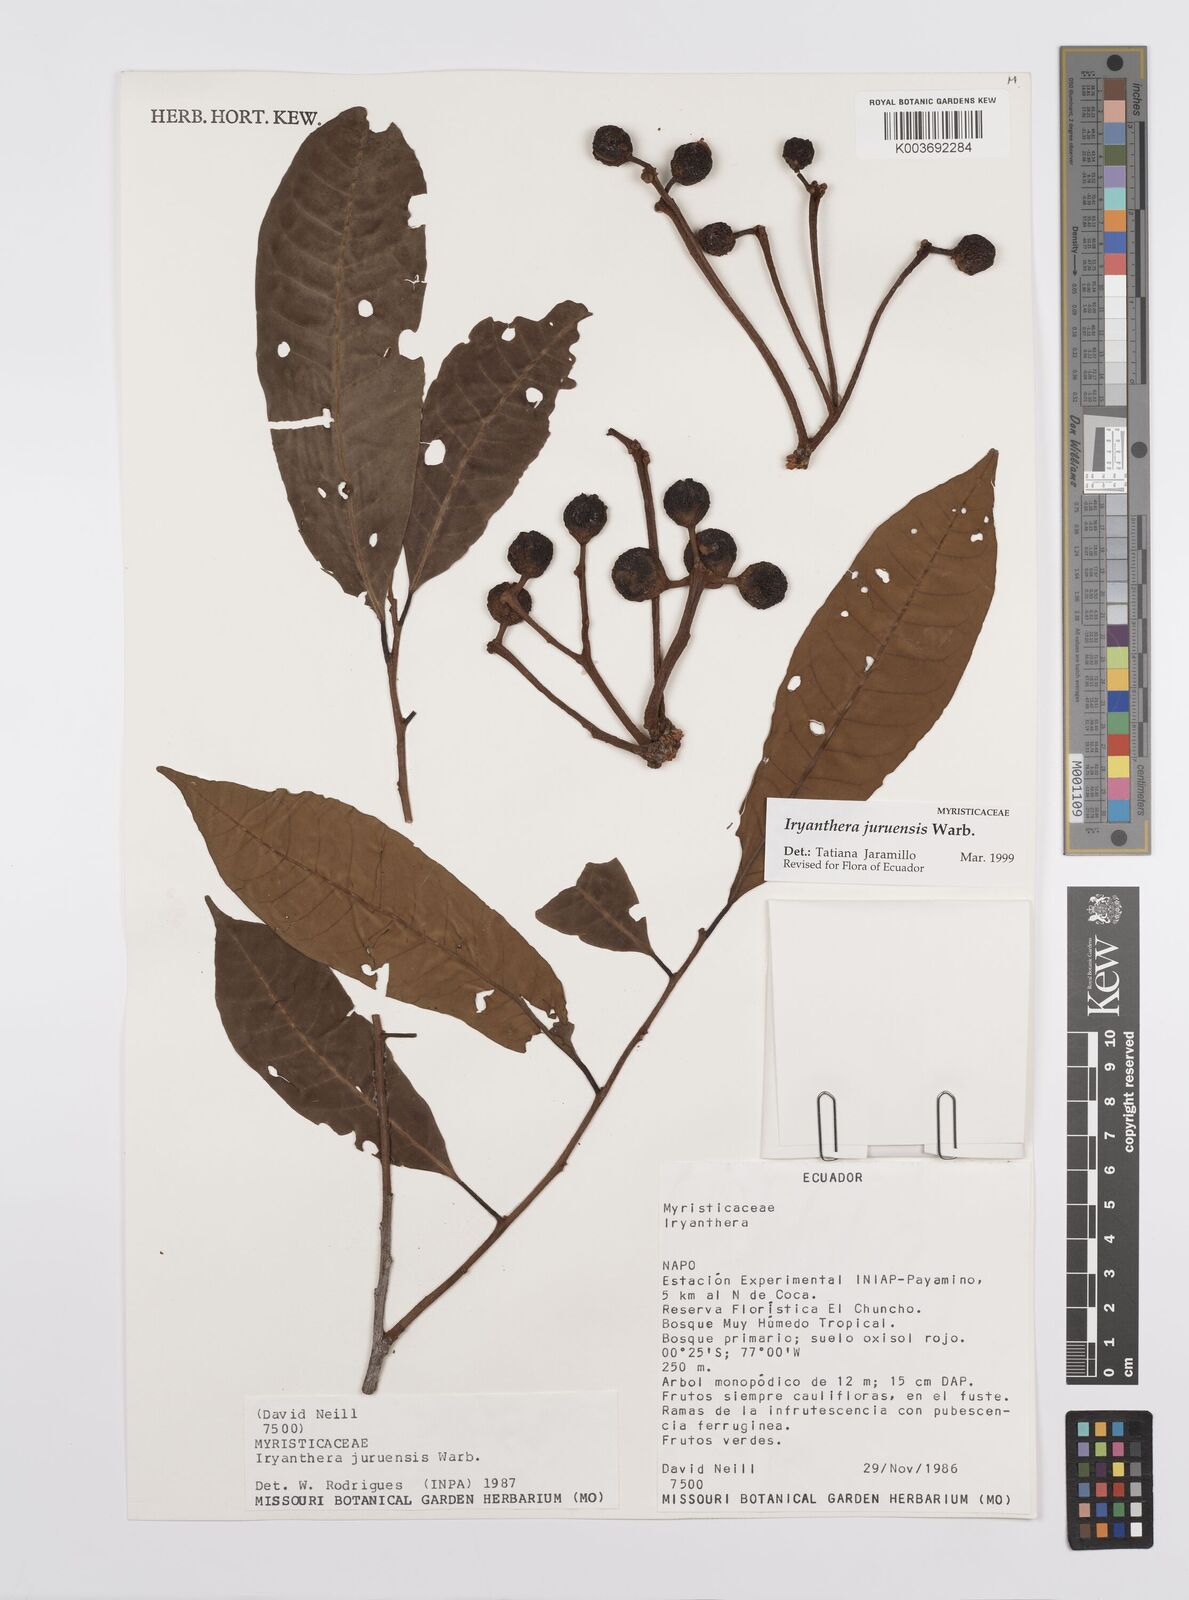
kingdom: Plantae
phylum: Tracheophyta
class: Magnoliopsida
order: Magnoliales
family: Myristicaceae
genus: Iryanthera
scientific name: Iryanthera juruensis
